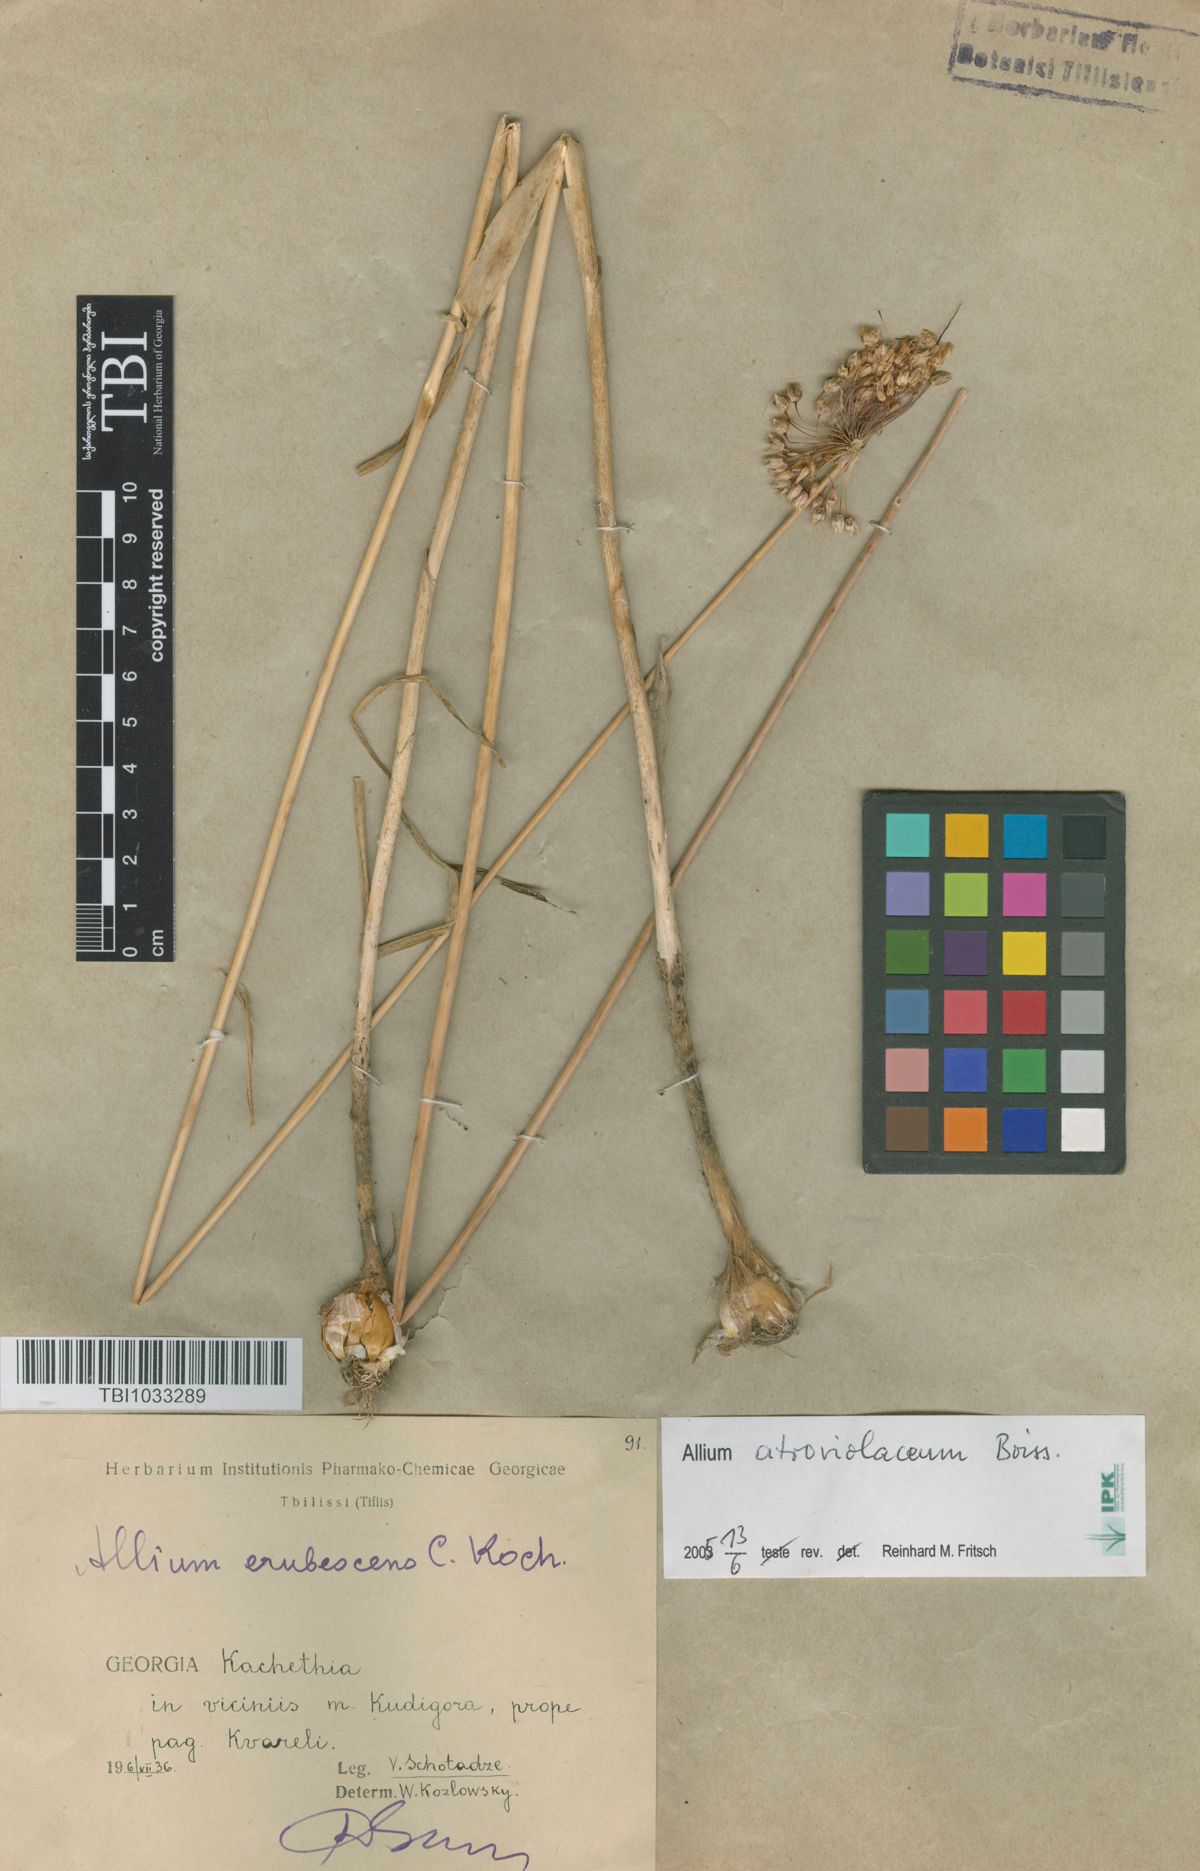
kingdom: Plantae
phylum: Tracheophyta
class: Liliopsida
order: Asparagales
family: Amaryllidaceae
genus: Allium
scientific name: Allium erubescens
